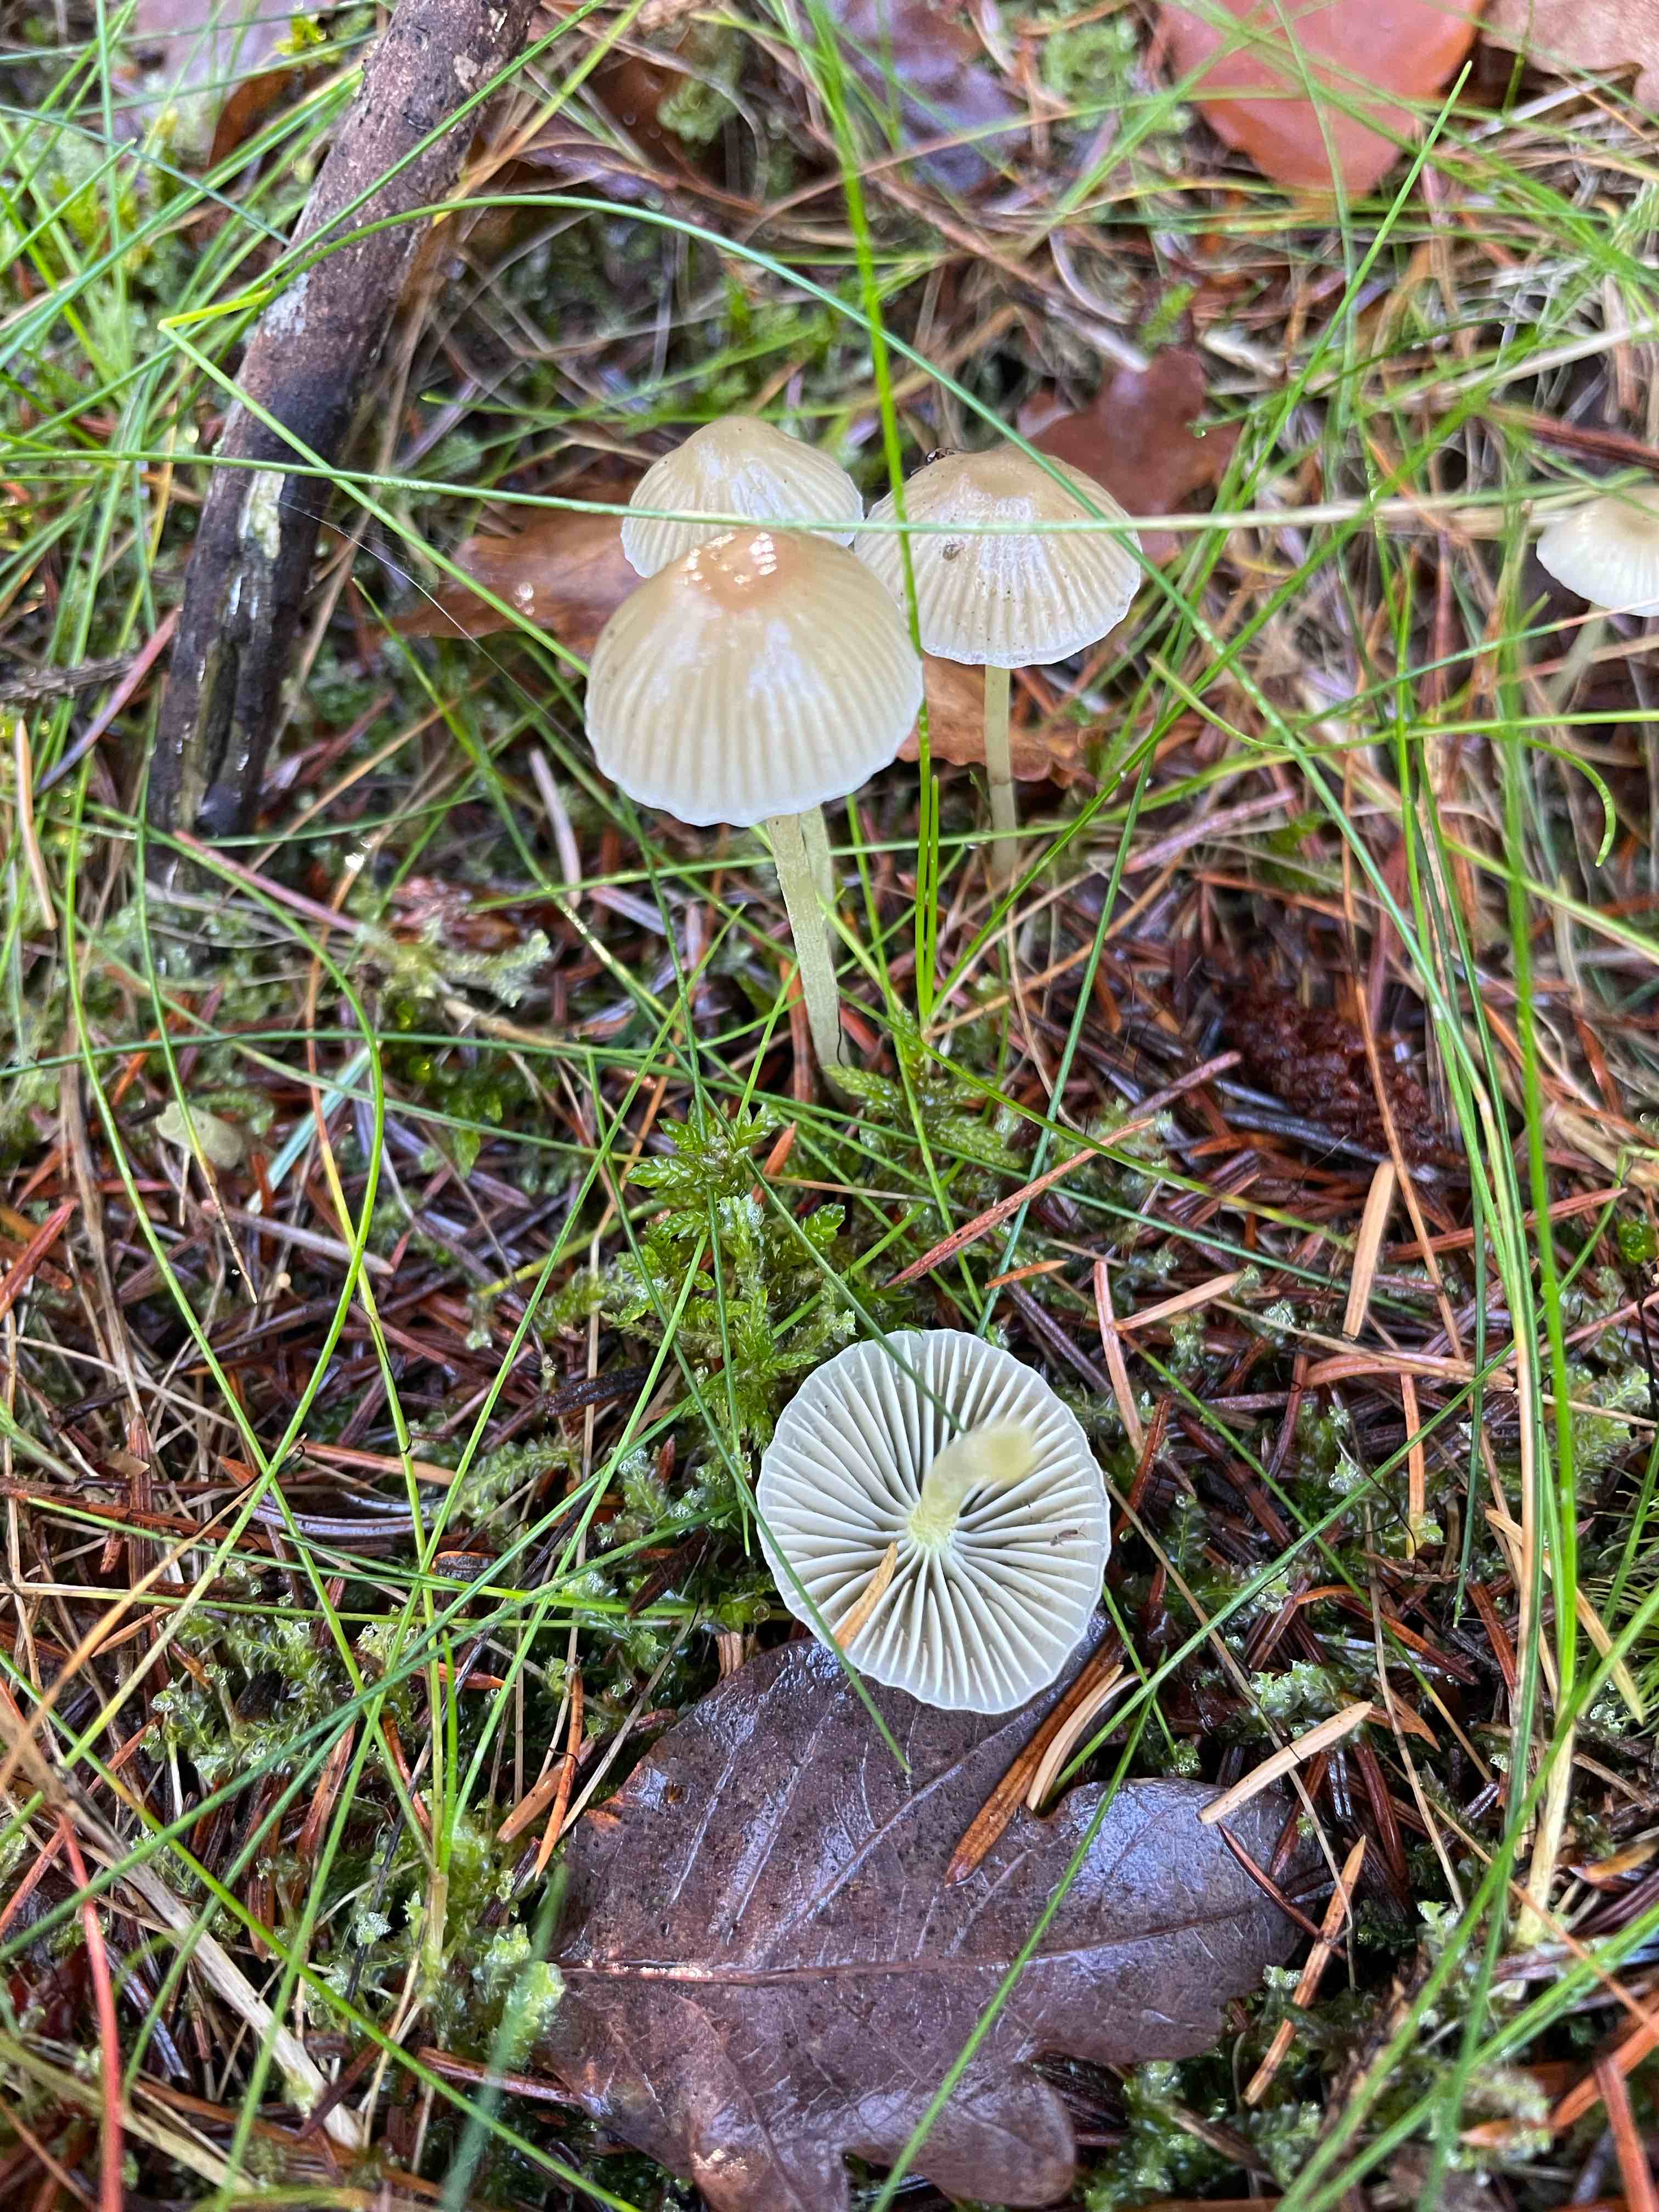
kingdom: Fungi
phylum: Basidiomycota
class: Agaricomycetes
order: Agaricales
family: Mycenaceae
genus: Mycena
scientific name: Mycena epipterygia
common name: gulstokket huesvamp
